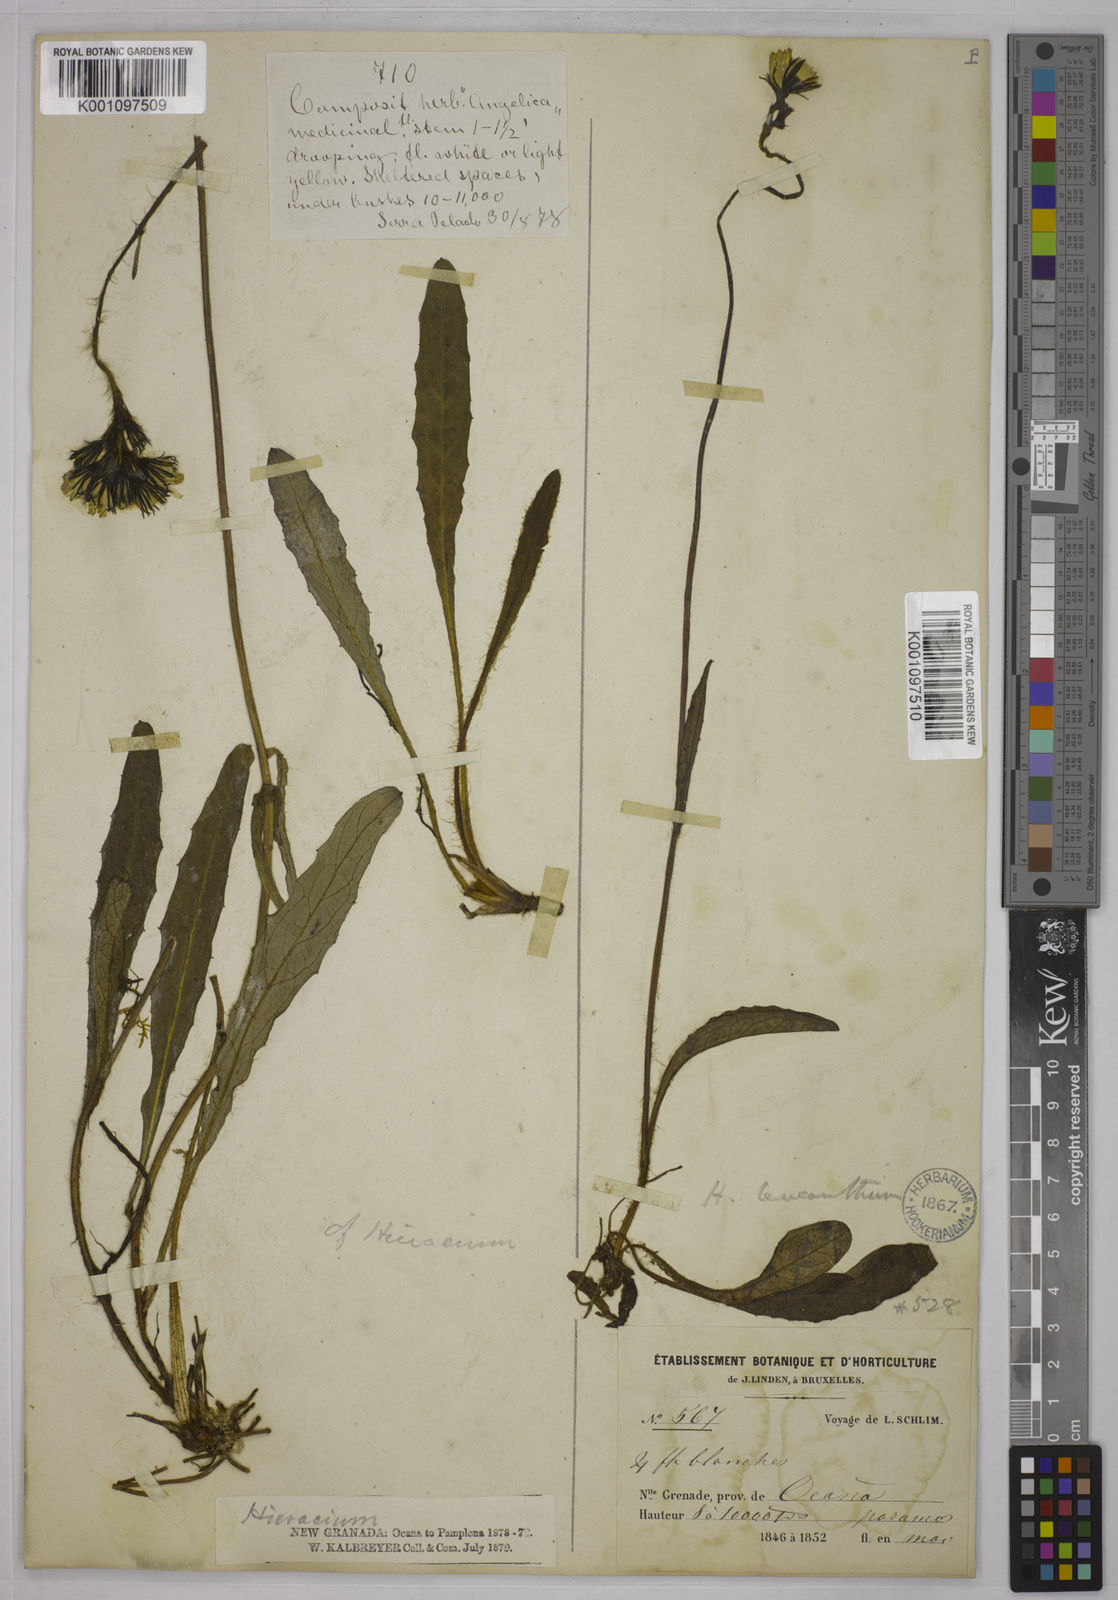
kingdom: Plantae
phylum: Tracheophyta
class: Magnoliopsida
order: Asterales
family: Asteraceae
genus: Hieracium
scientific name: Hieracium leucanthemum
